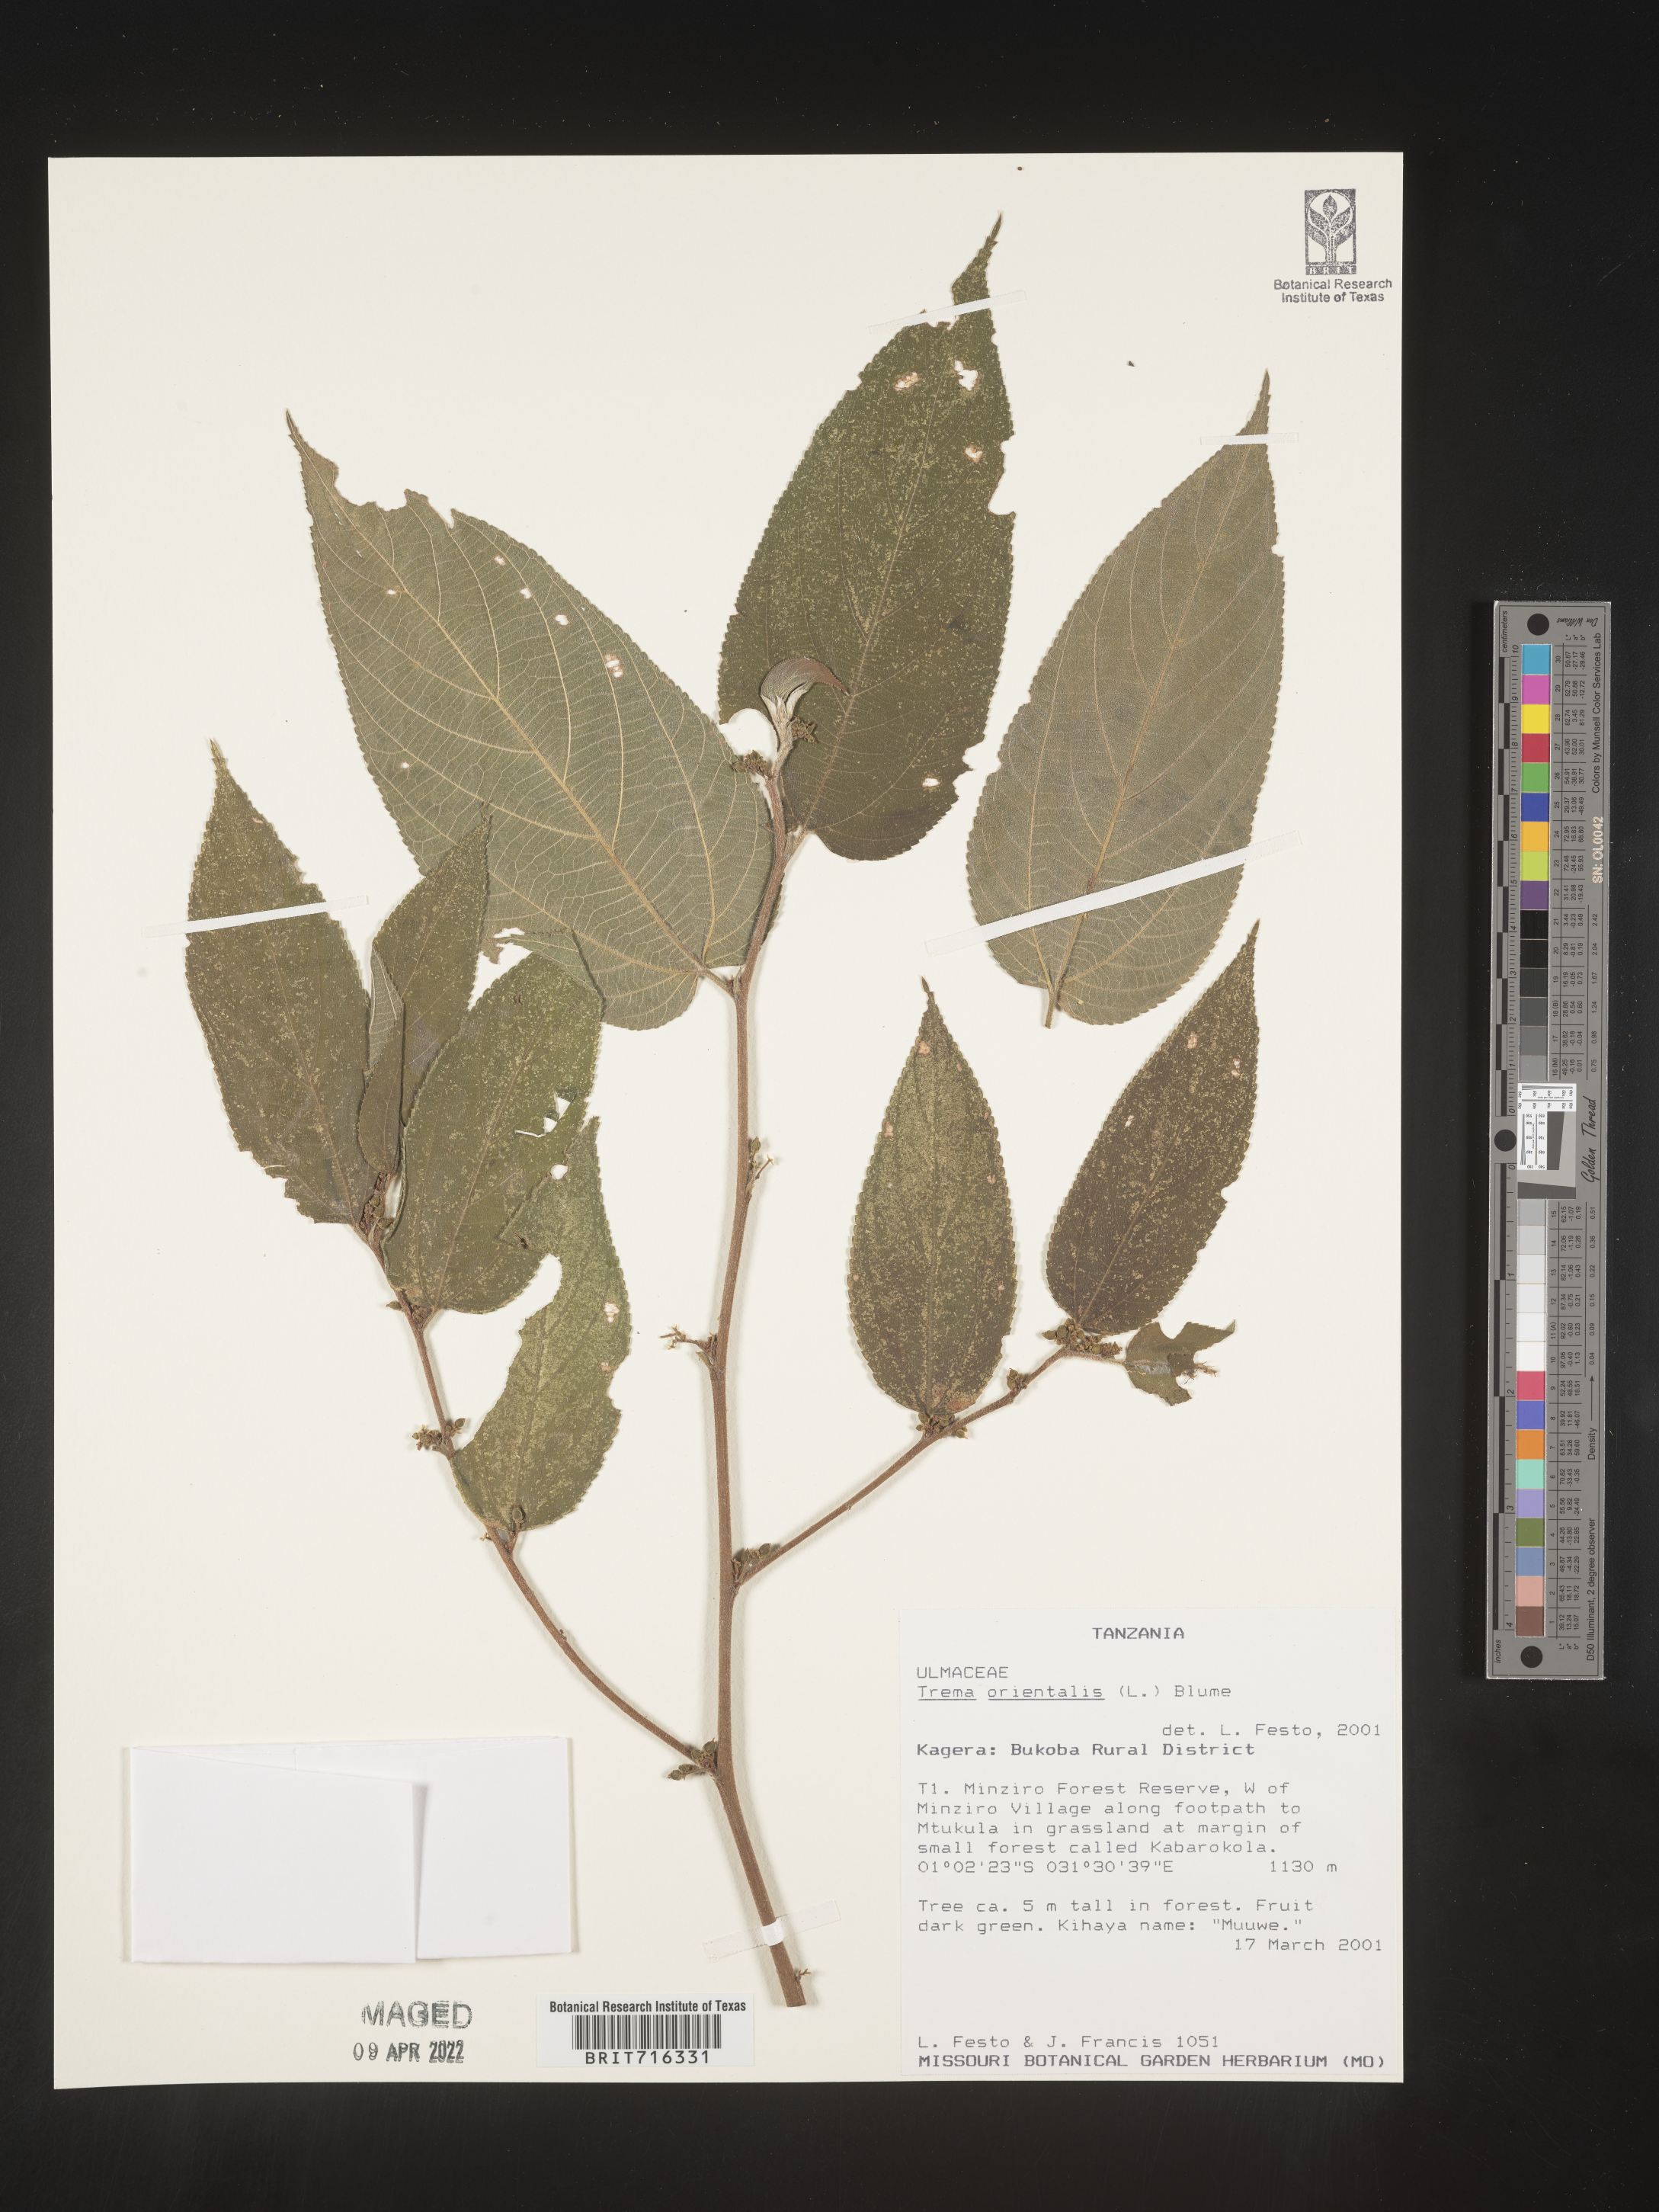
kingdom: Plantae
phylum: Tracheophyta
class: Magnoliopsida
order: Rosales
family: Cannabaceae
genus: Trema
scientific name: Trema
